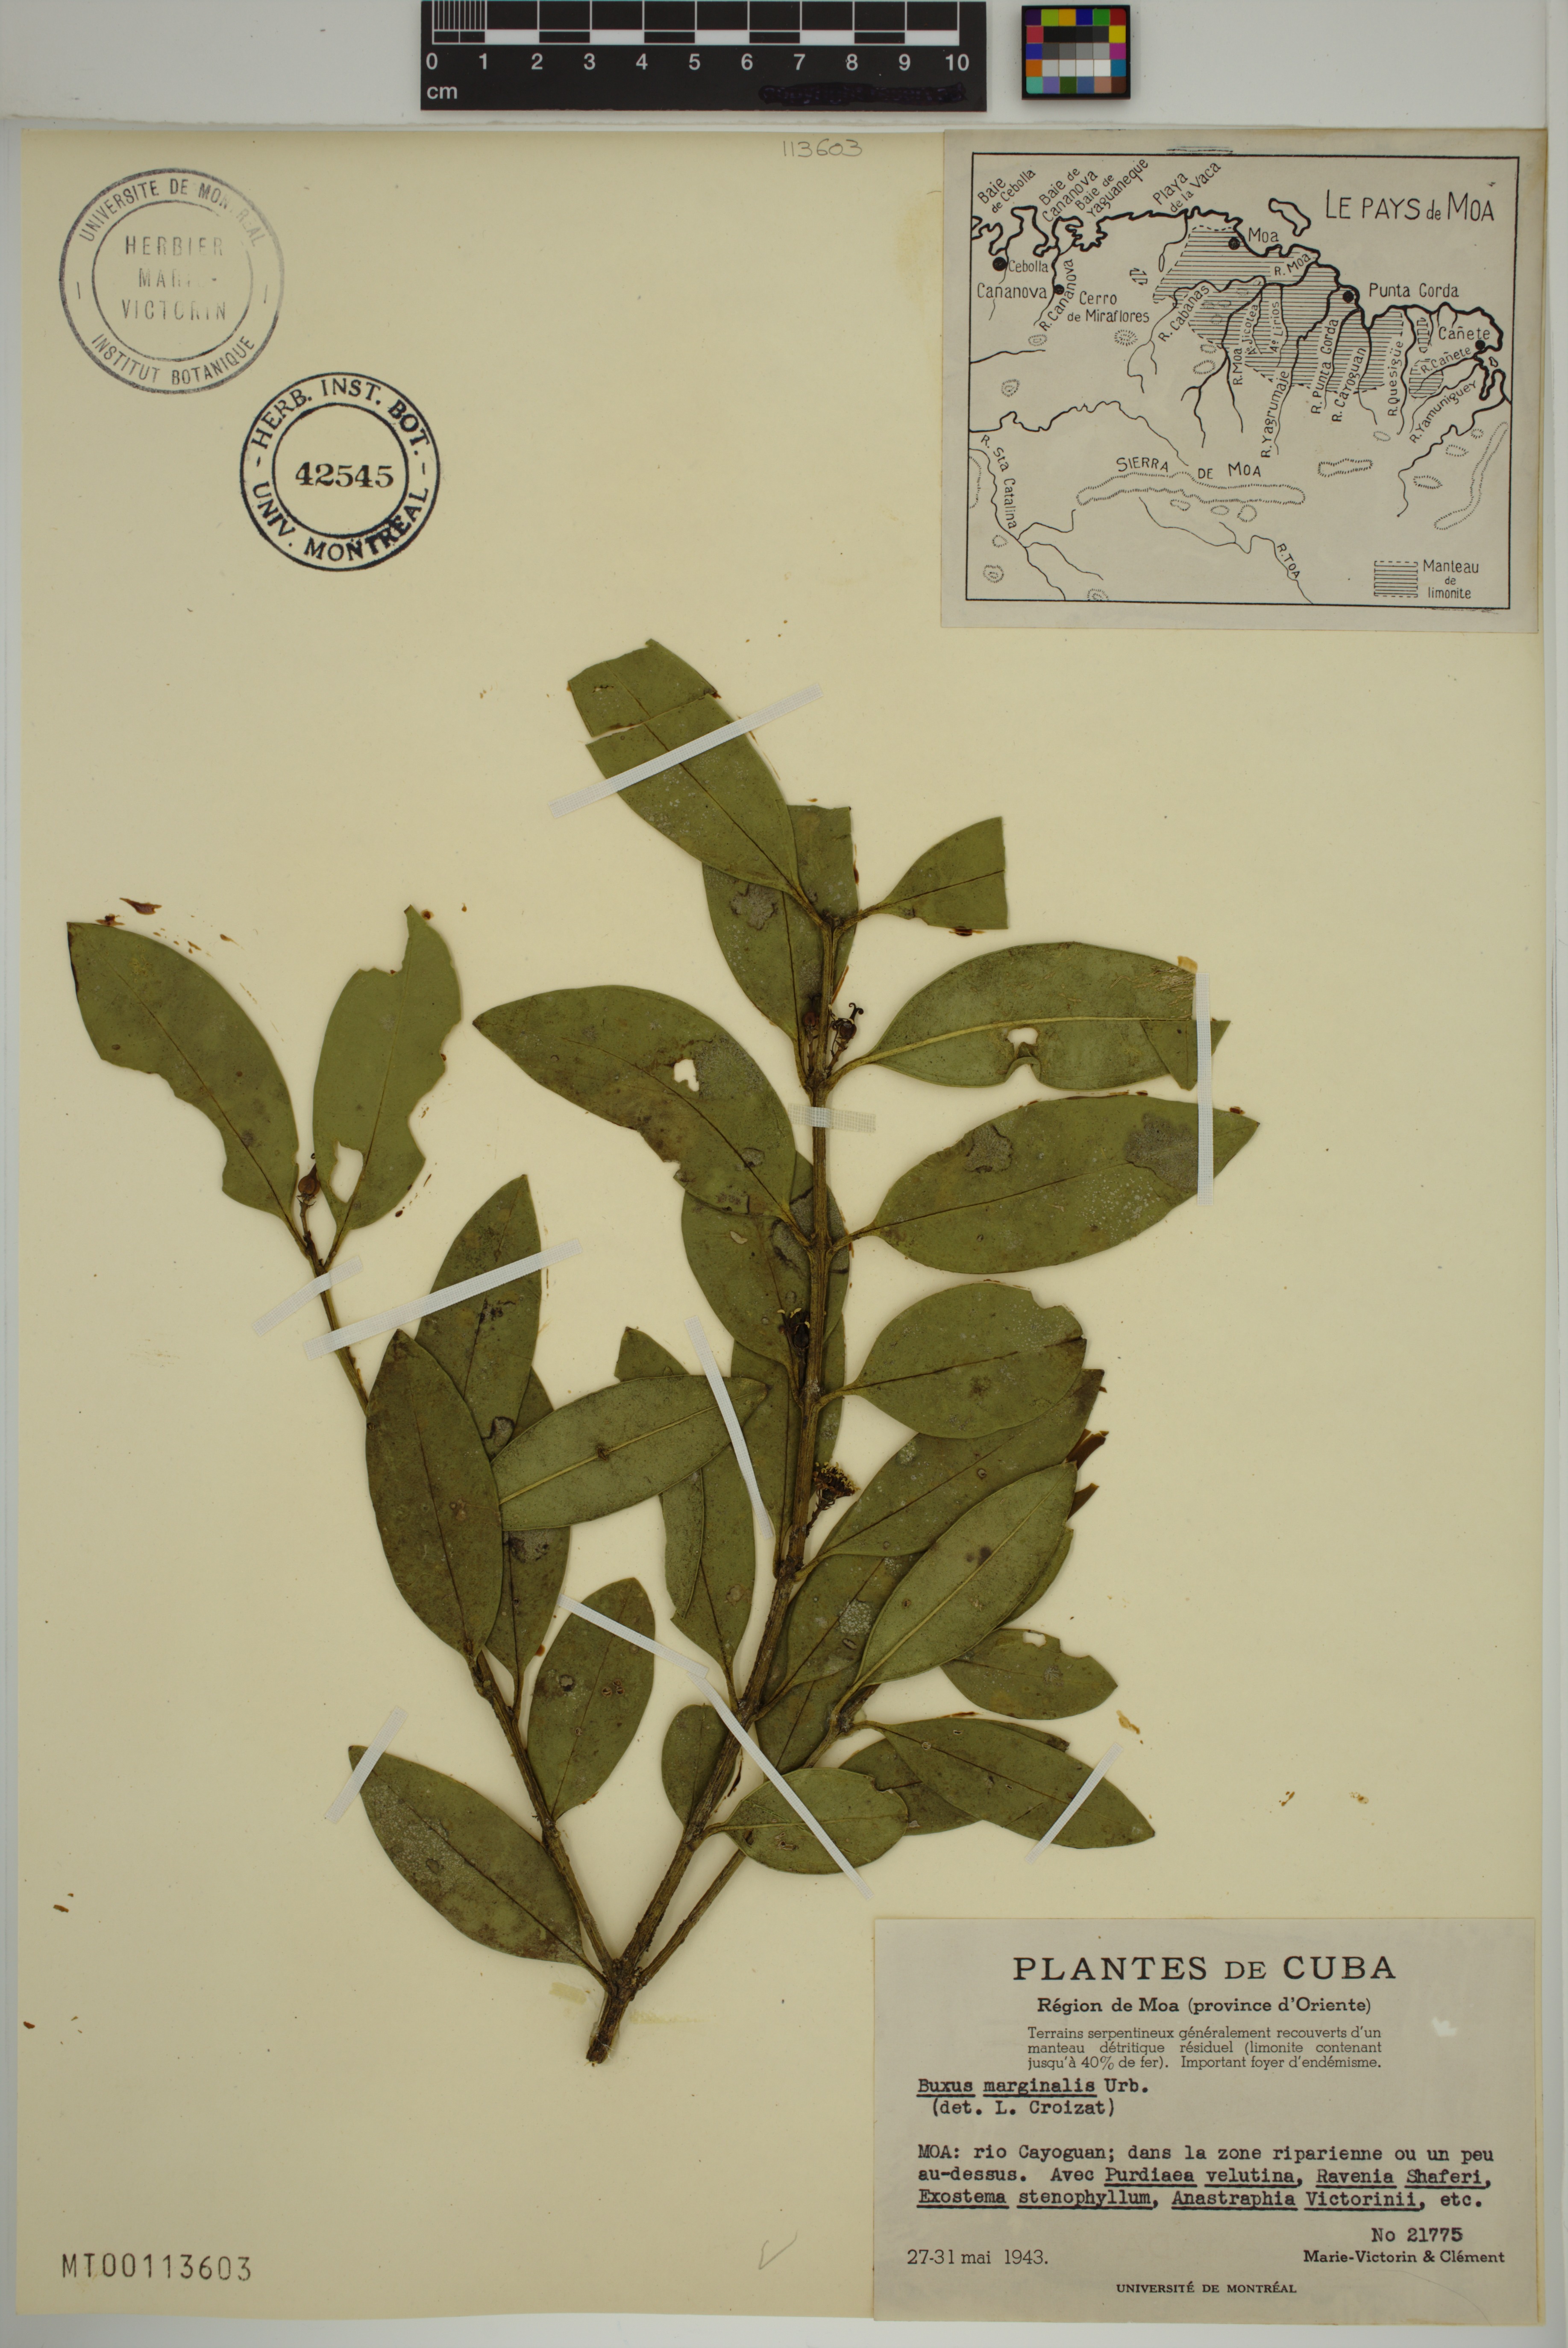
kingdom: Plantae
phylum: Tracheophyta
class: Magnoliopsida
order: Buxales
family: Buxaceae
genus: Buxus
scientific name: Buxus marginalis
